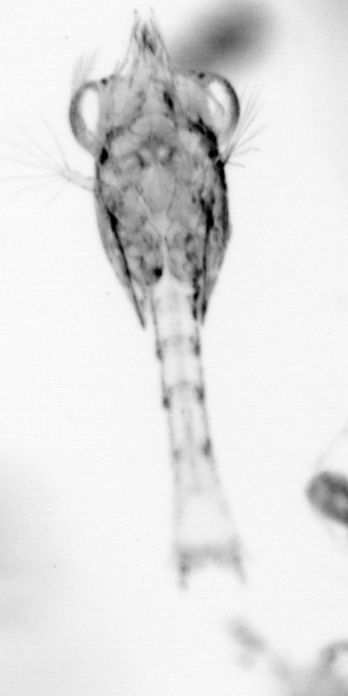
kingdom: Animalia
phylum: Arthropoda
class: Copepoda
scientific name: Copepoda
